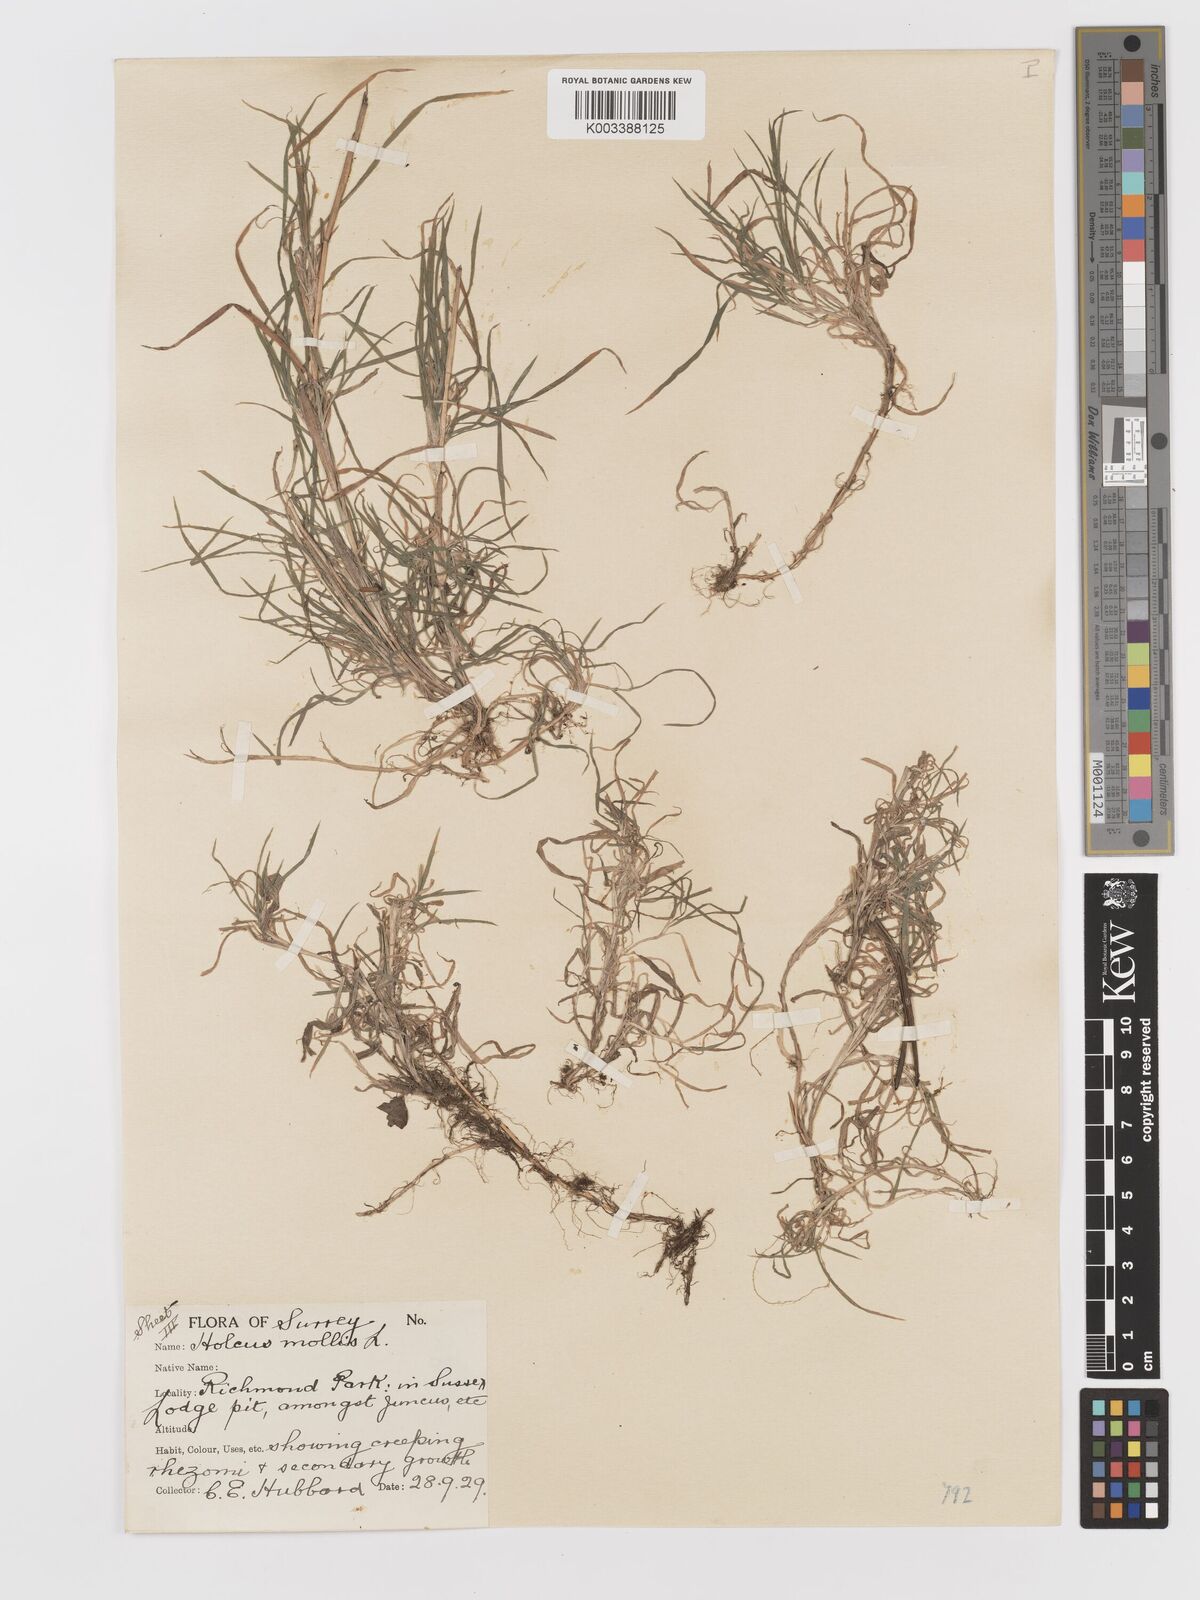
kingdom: Plantae
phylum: Tracheophyta
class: Liliopsida
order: Poales
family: Poaceae
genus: Holcus
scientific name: Holcus mollis
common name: Creeping velvetgrass
